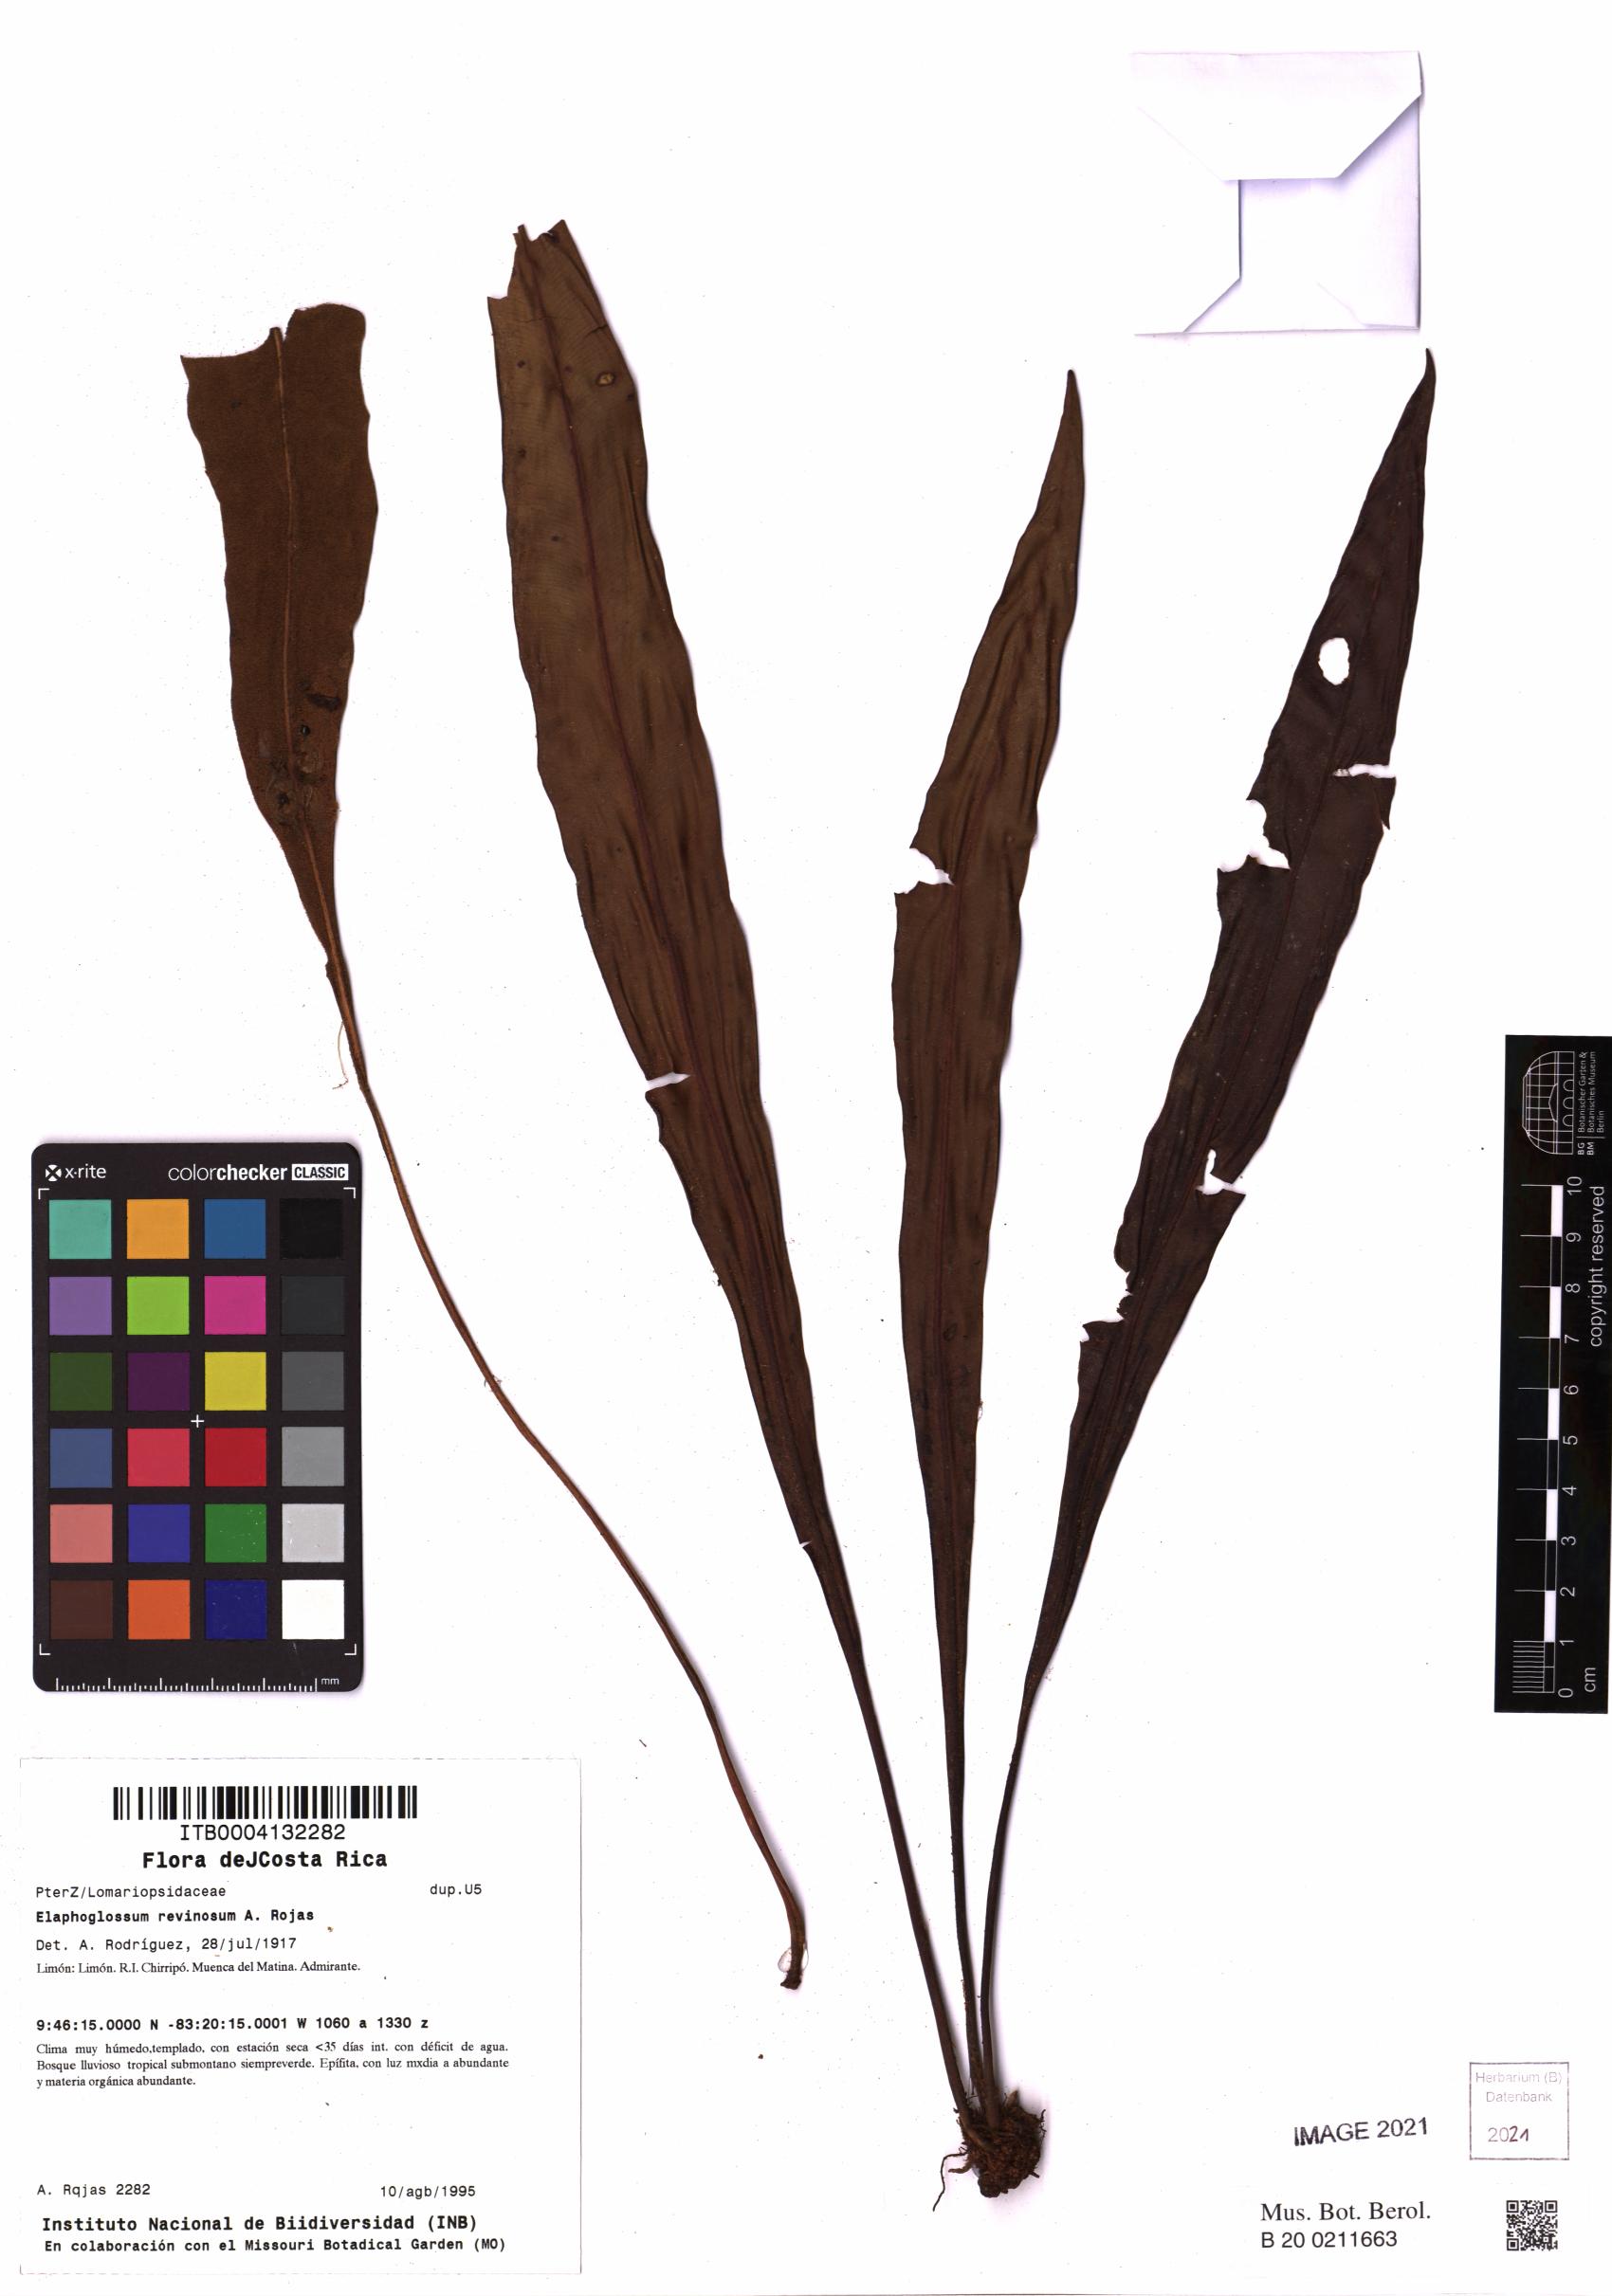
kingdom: Plantae
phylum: Tracheophyta
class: Polypodiopsida
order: Polypodiales
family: Dryopteridaceae
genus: Elaphoglossum
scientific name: Elaphoglossum resinosum
